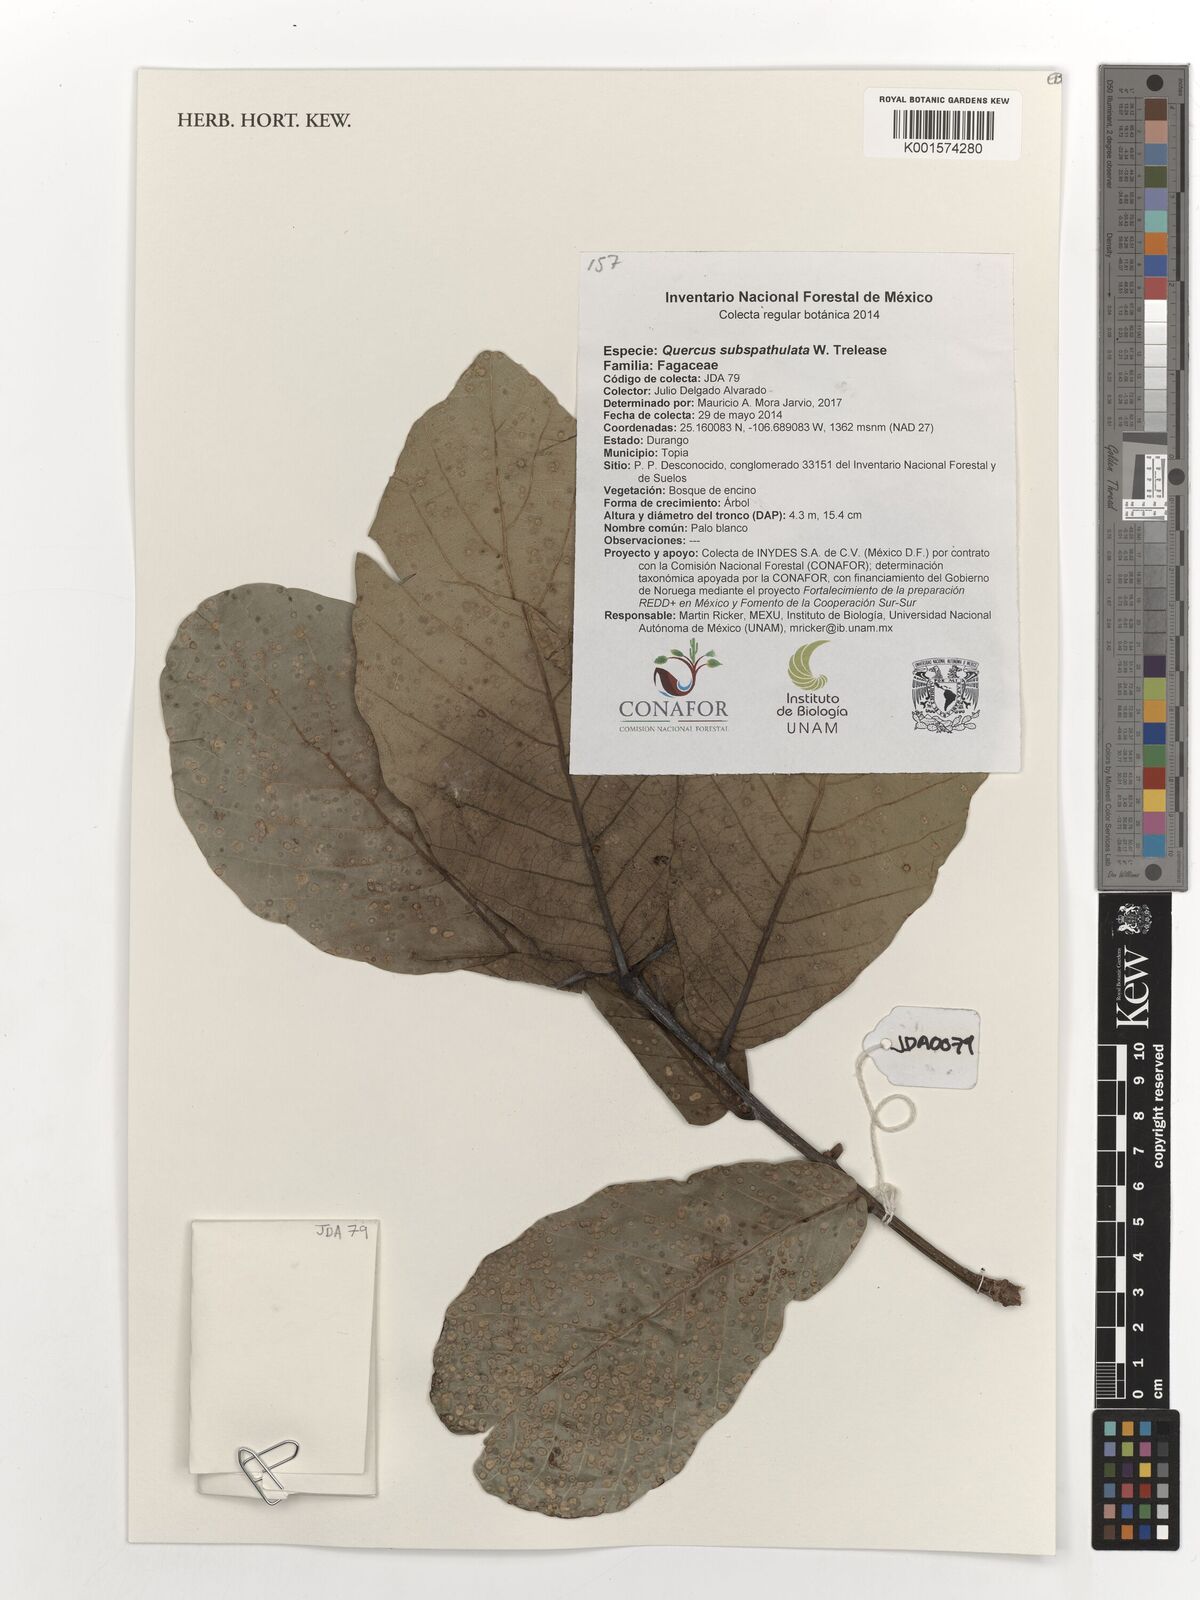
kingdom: Plantae
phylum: Tracheophyta
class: Magnoliopsida
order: Fagales
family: Fagaceae
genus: Quercus
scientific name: Quercus subspathulata
